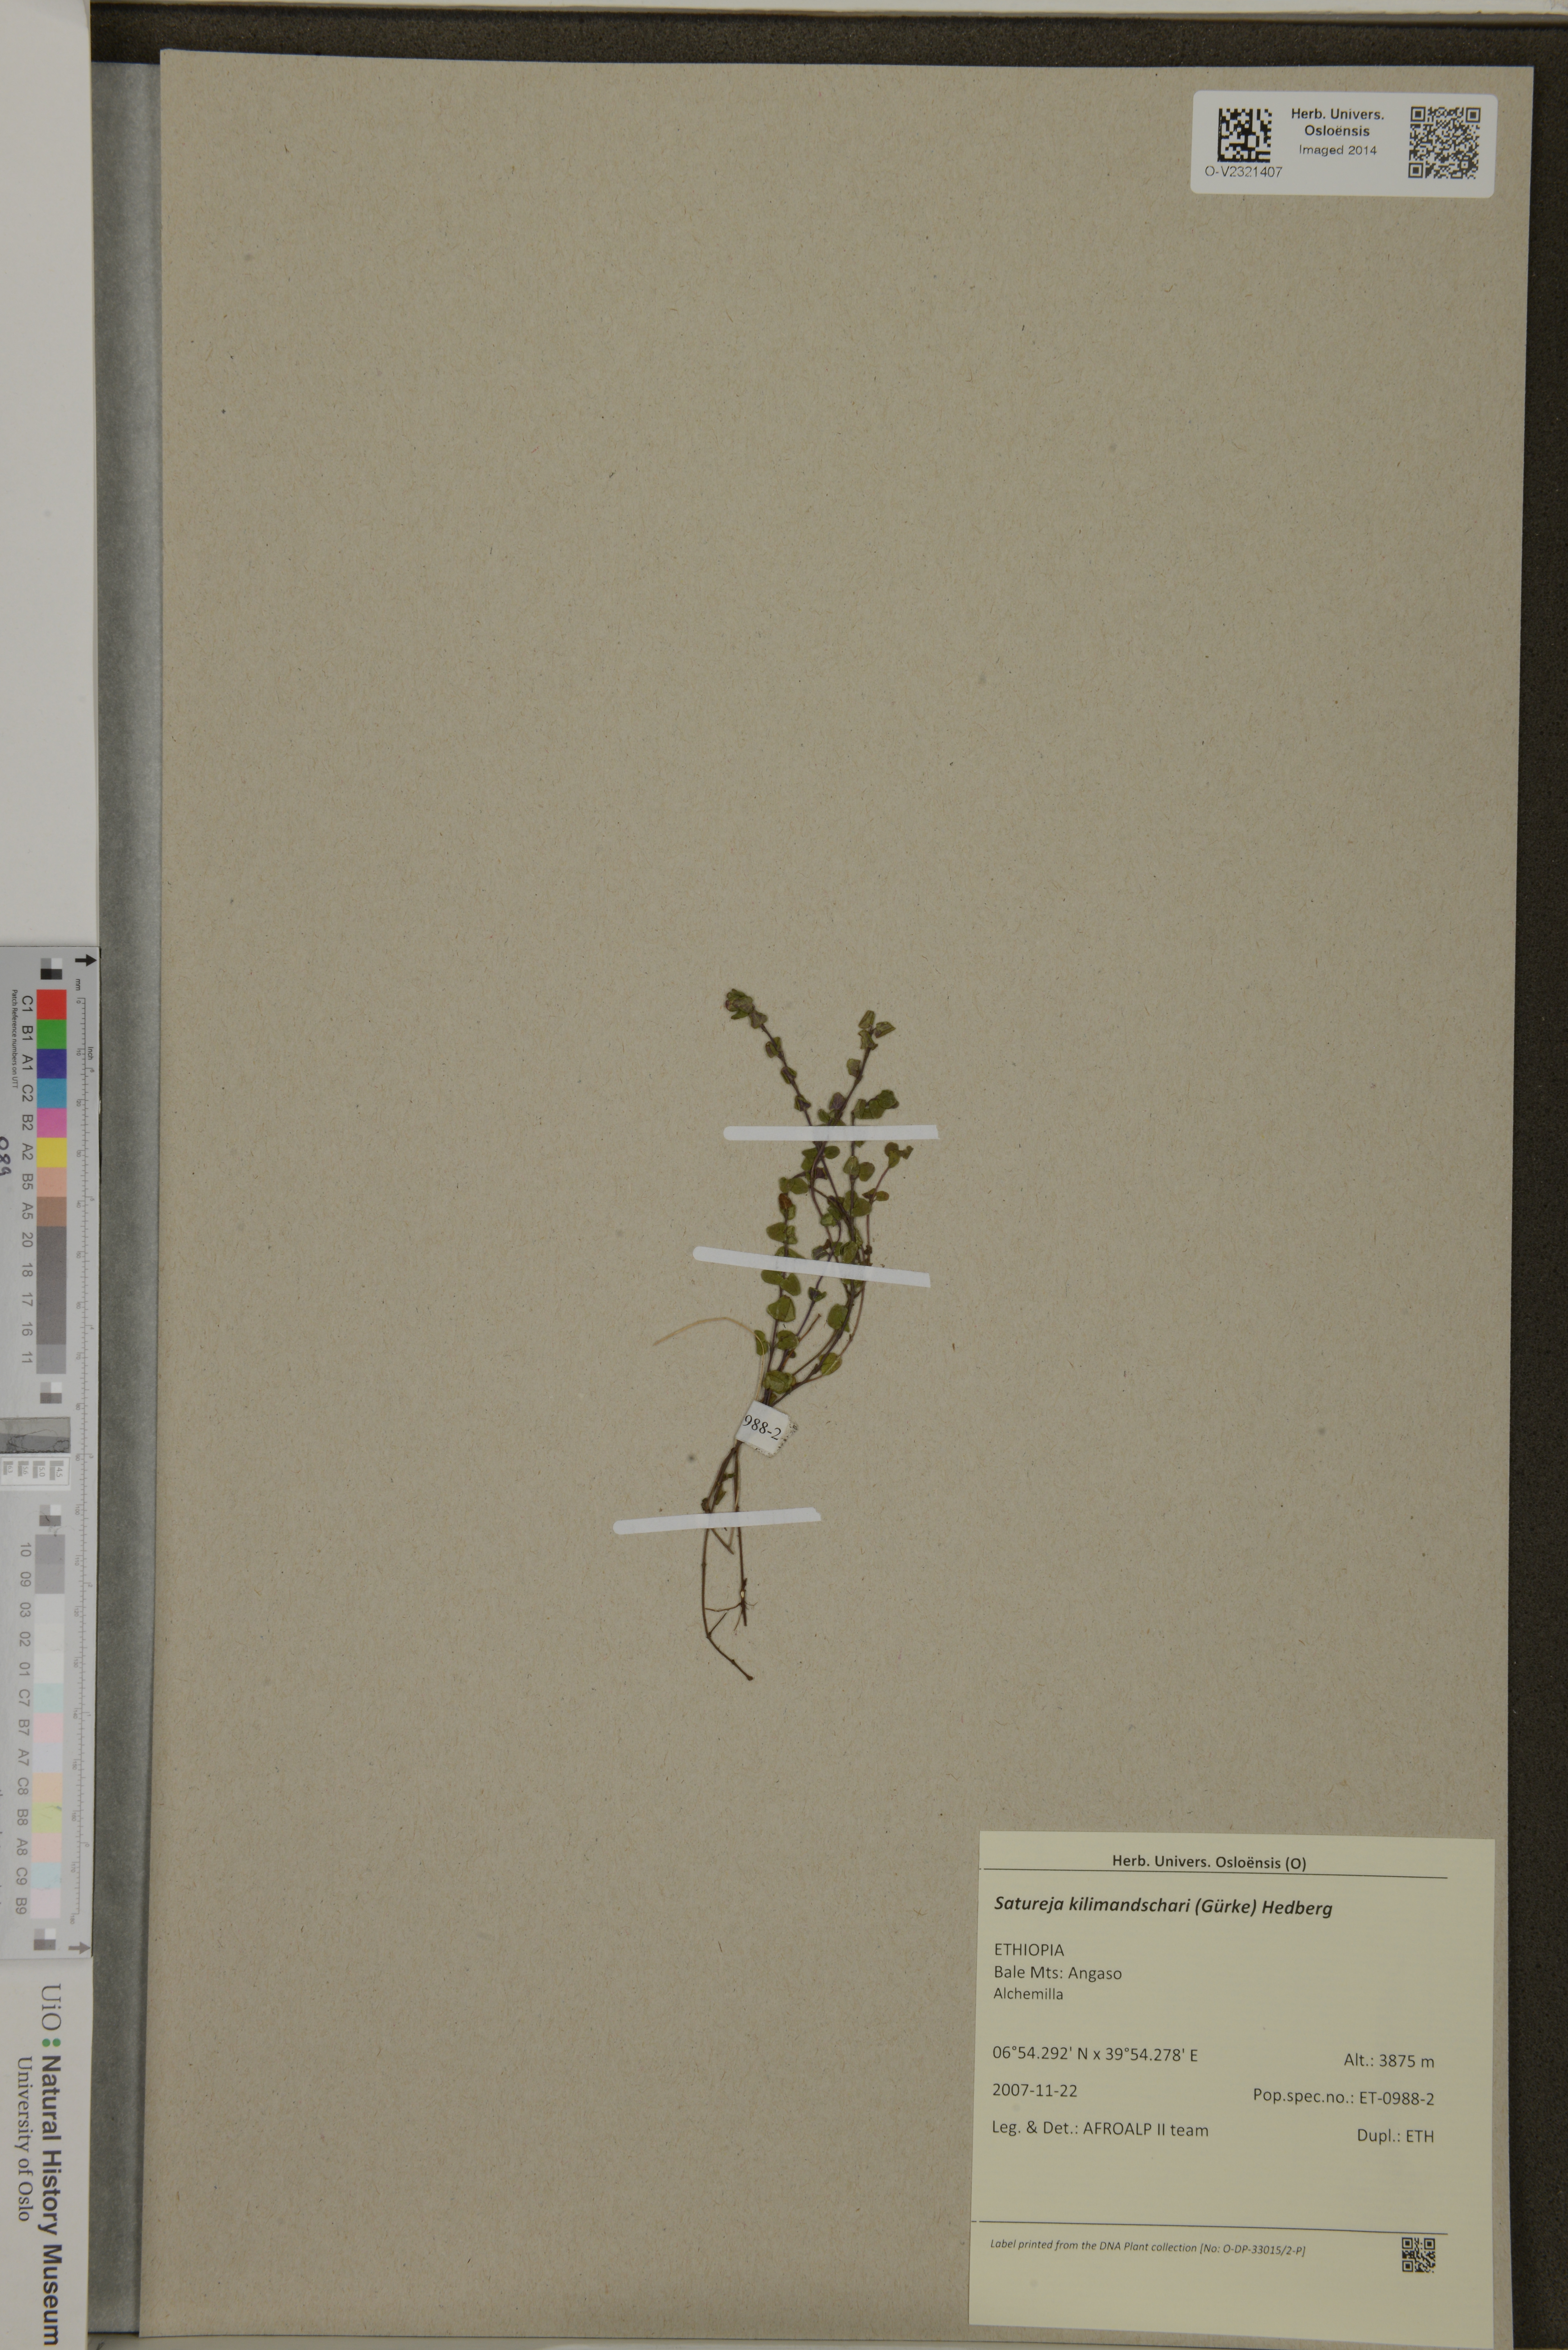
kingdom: Plantae
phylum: Tracheophyta
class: Magnoliopsida
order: Lamiales
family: Lamiaceae
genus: Clinopodium
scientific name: Clinopodium kilimandschari
